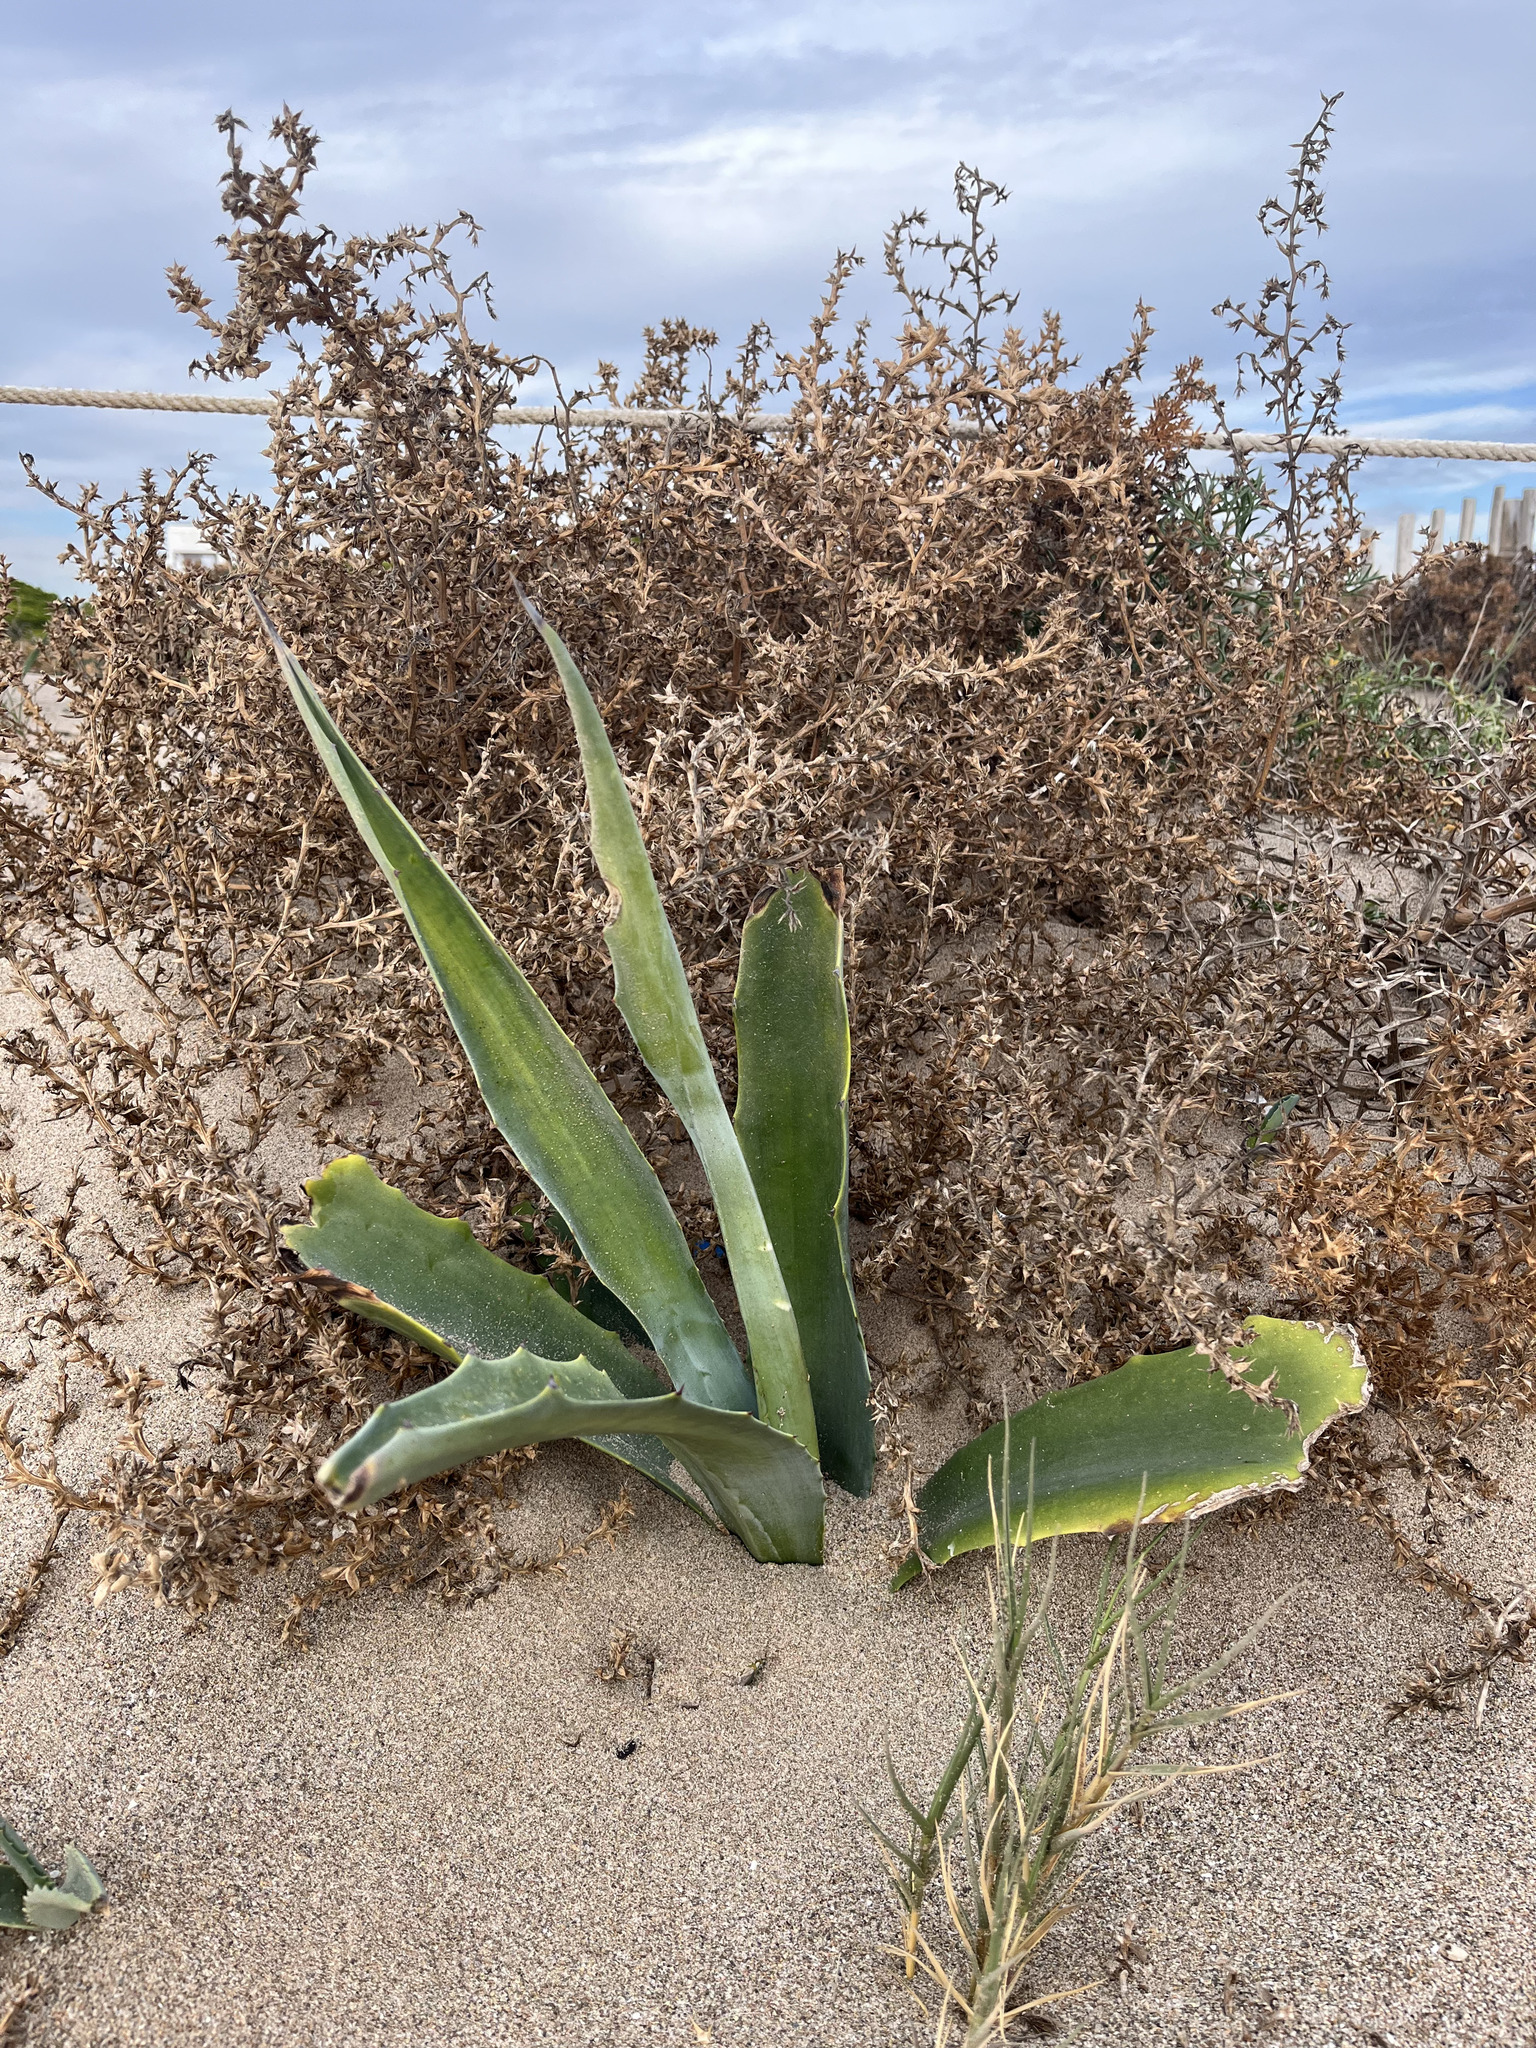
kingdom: Plantae
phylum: Tracheophyta
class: Liliopsida
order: Asparagales
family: Asparagaceae
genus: Agave
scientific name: Agave americana
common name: Centuryplant
